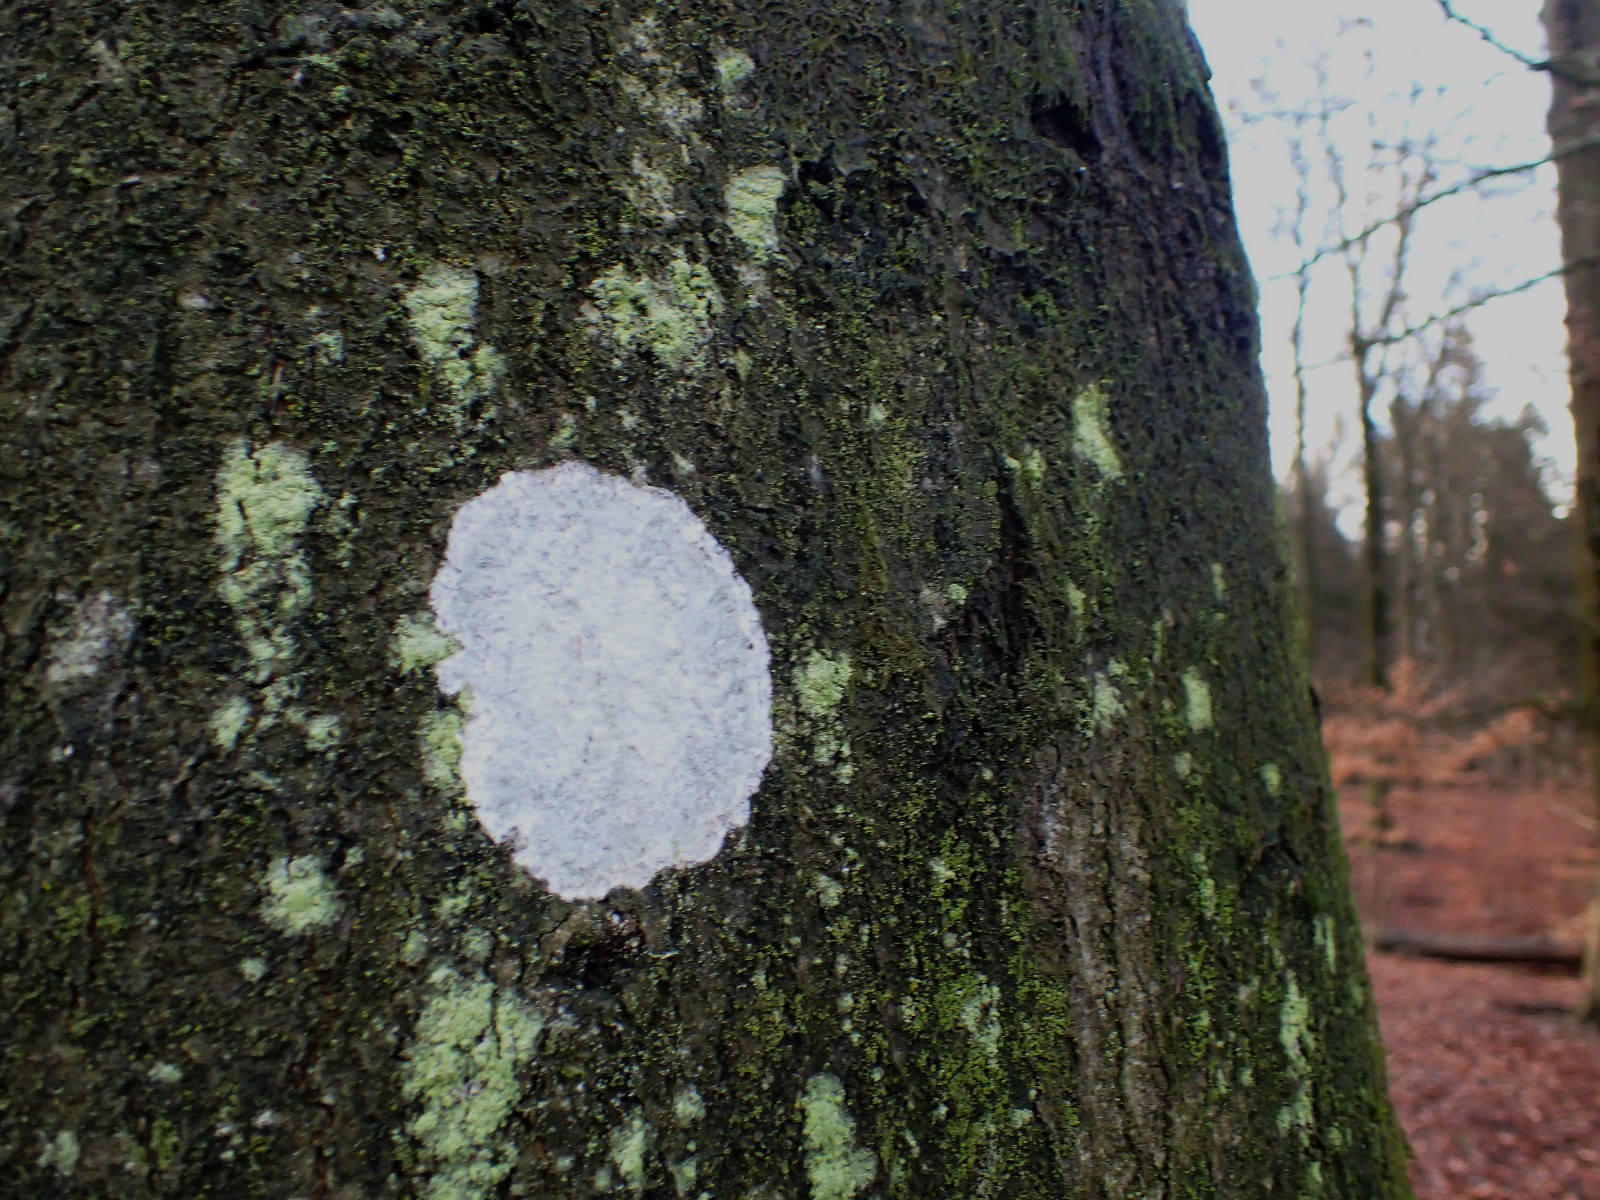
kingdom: Fungi
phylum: Ascomycota
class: Lecanoromycetes
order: Ostropales
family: Phlyctidaceae
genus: Phlyctis
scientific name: Phlyctis argena
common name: almindelig sølvlav
